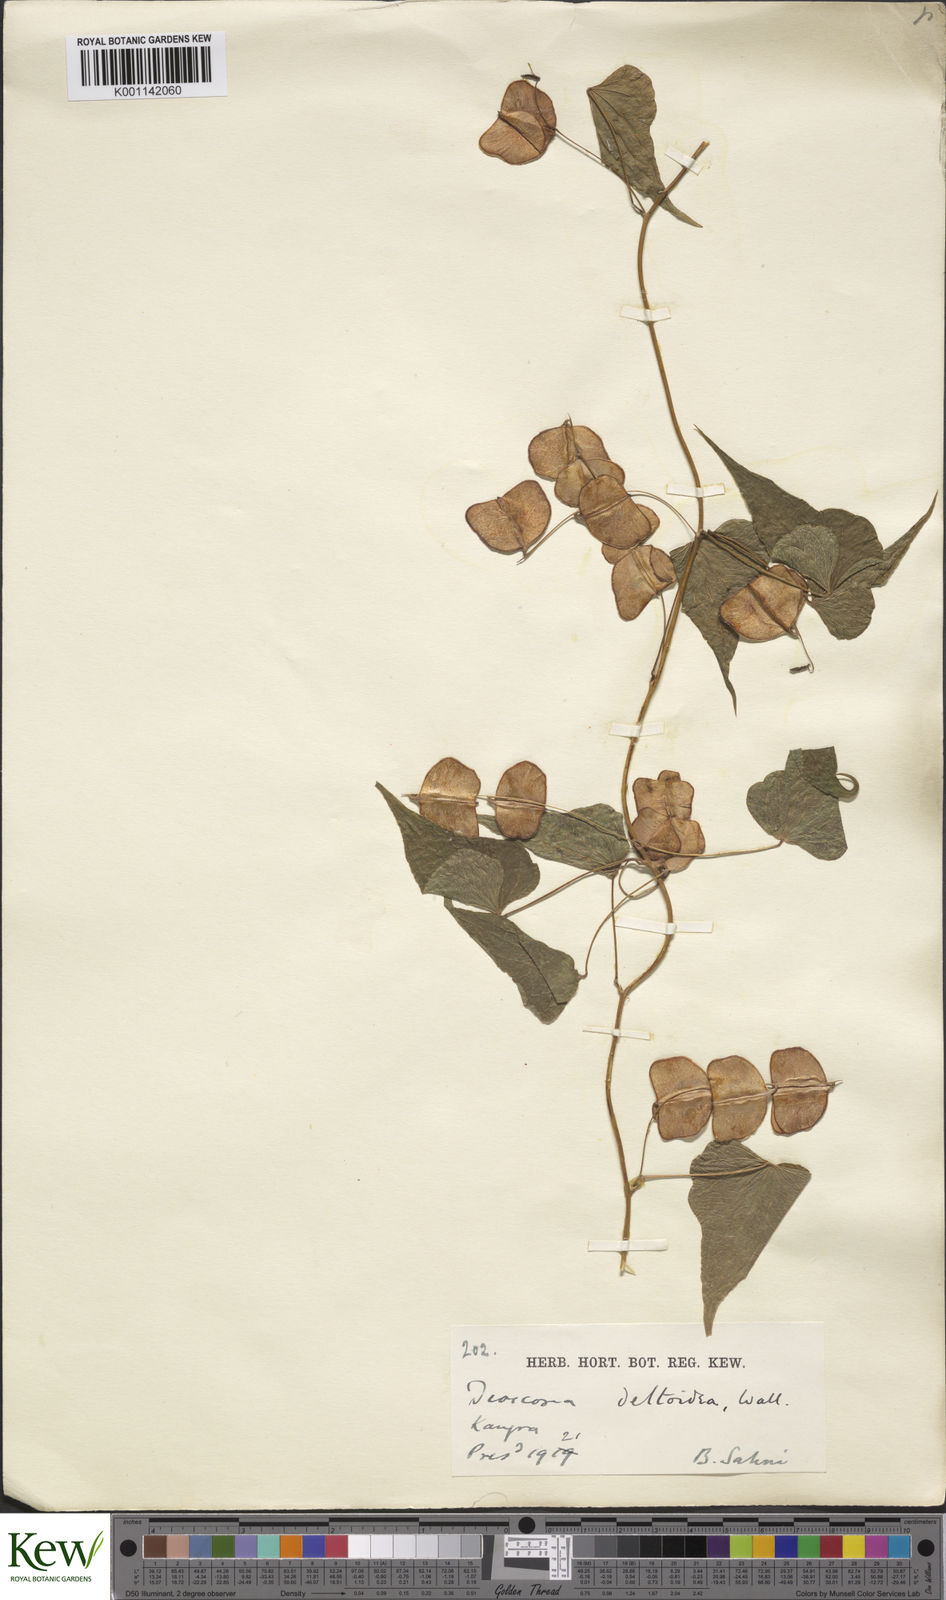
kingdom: Plantae
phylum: Tracheophyta
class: Liliopsida
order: Dioscoreales
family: Dioscoreaceae
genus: Dioscorea
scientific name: Dioscorea deltoidea
